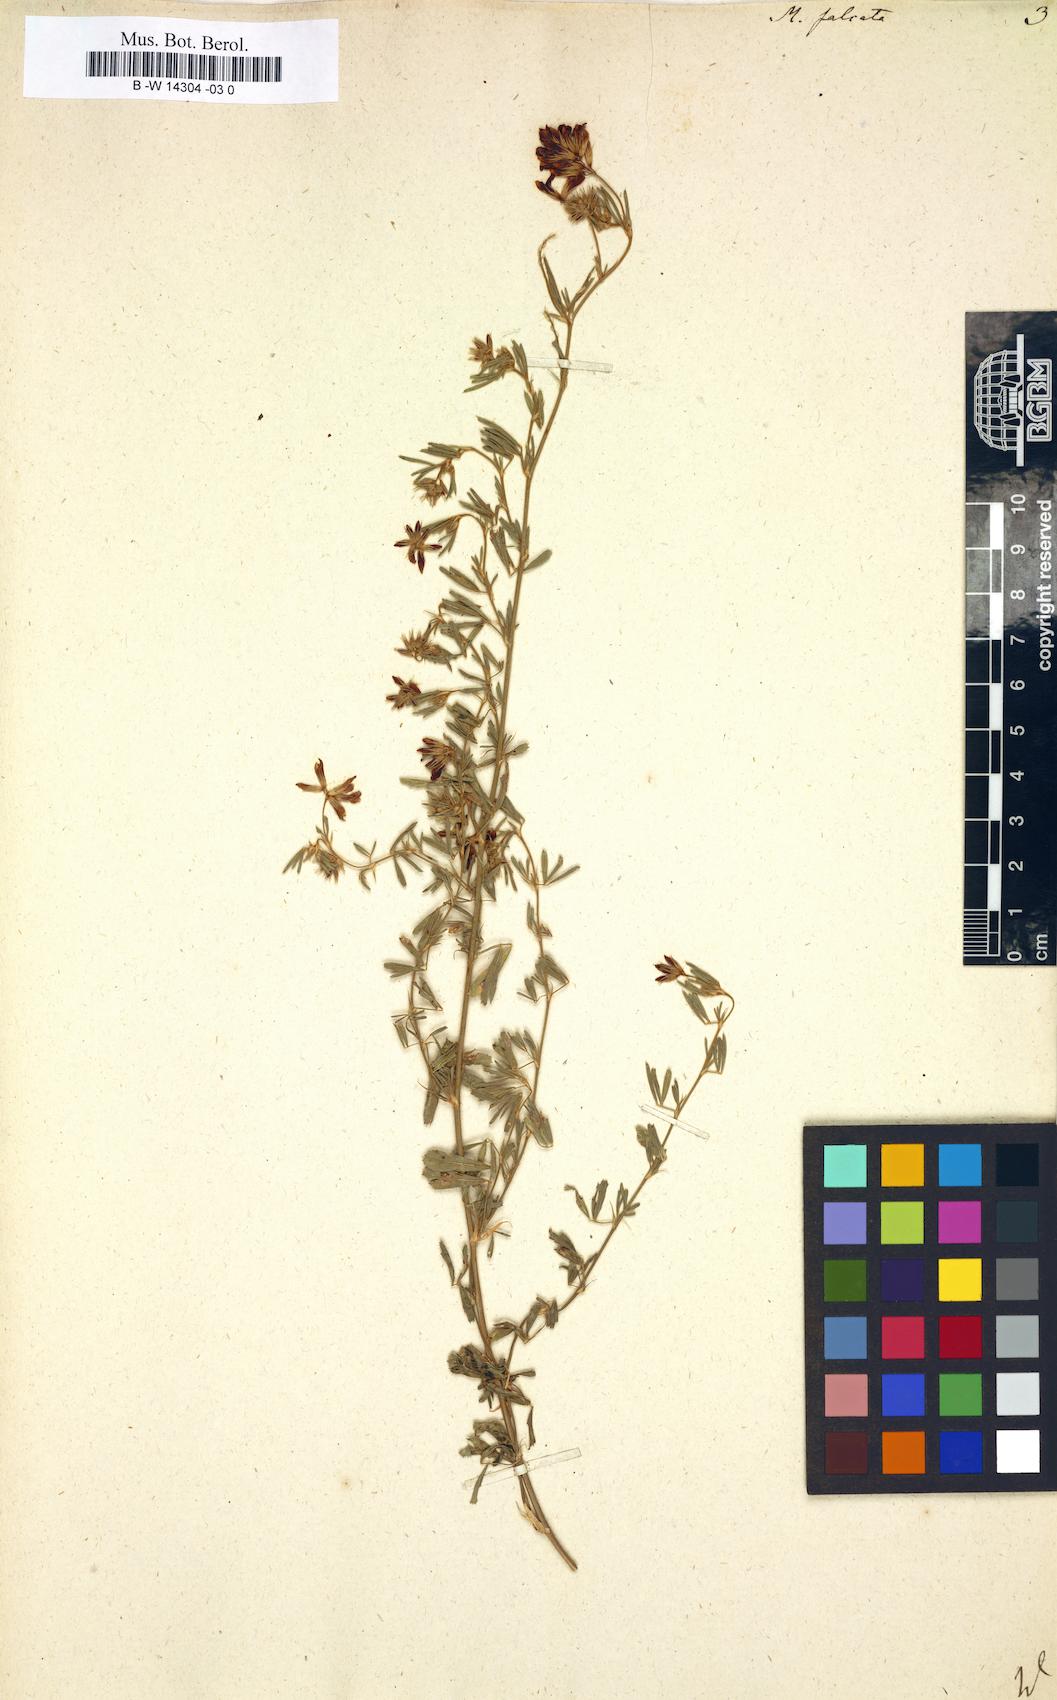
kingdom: Plantae
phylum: Tracheophyta
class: Magnoliopsida
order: Fabales
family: Fabaceae
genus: Medicago
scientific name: Medicago falcata
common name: Sickle medick
